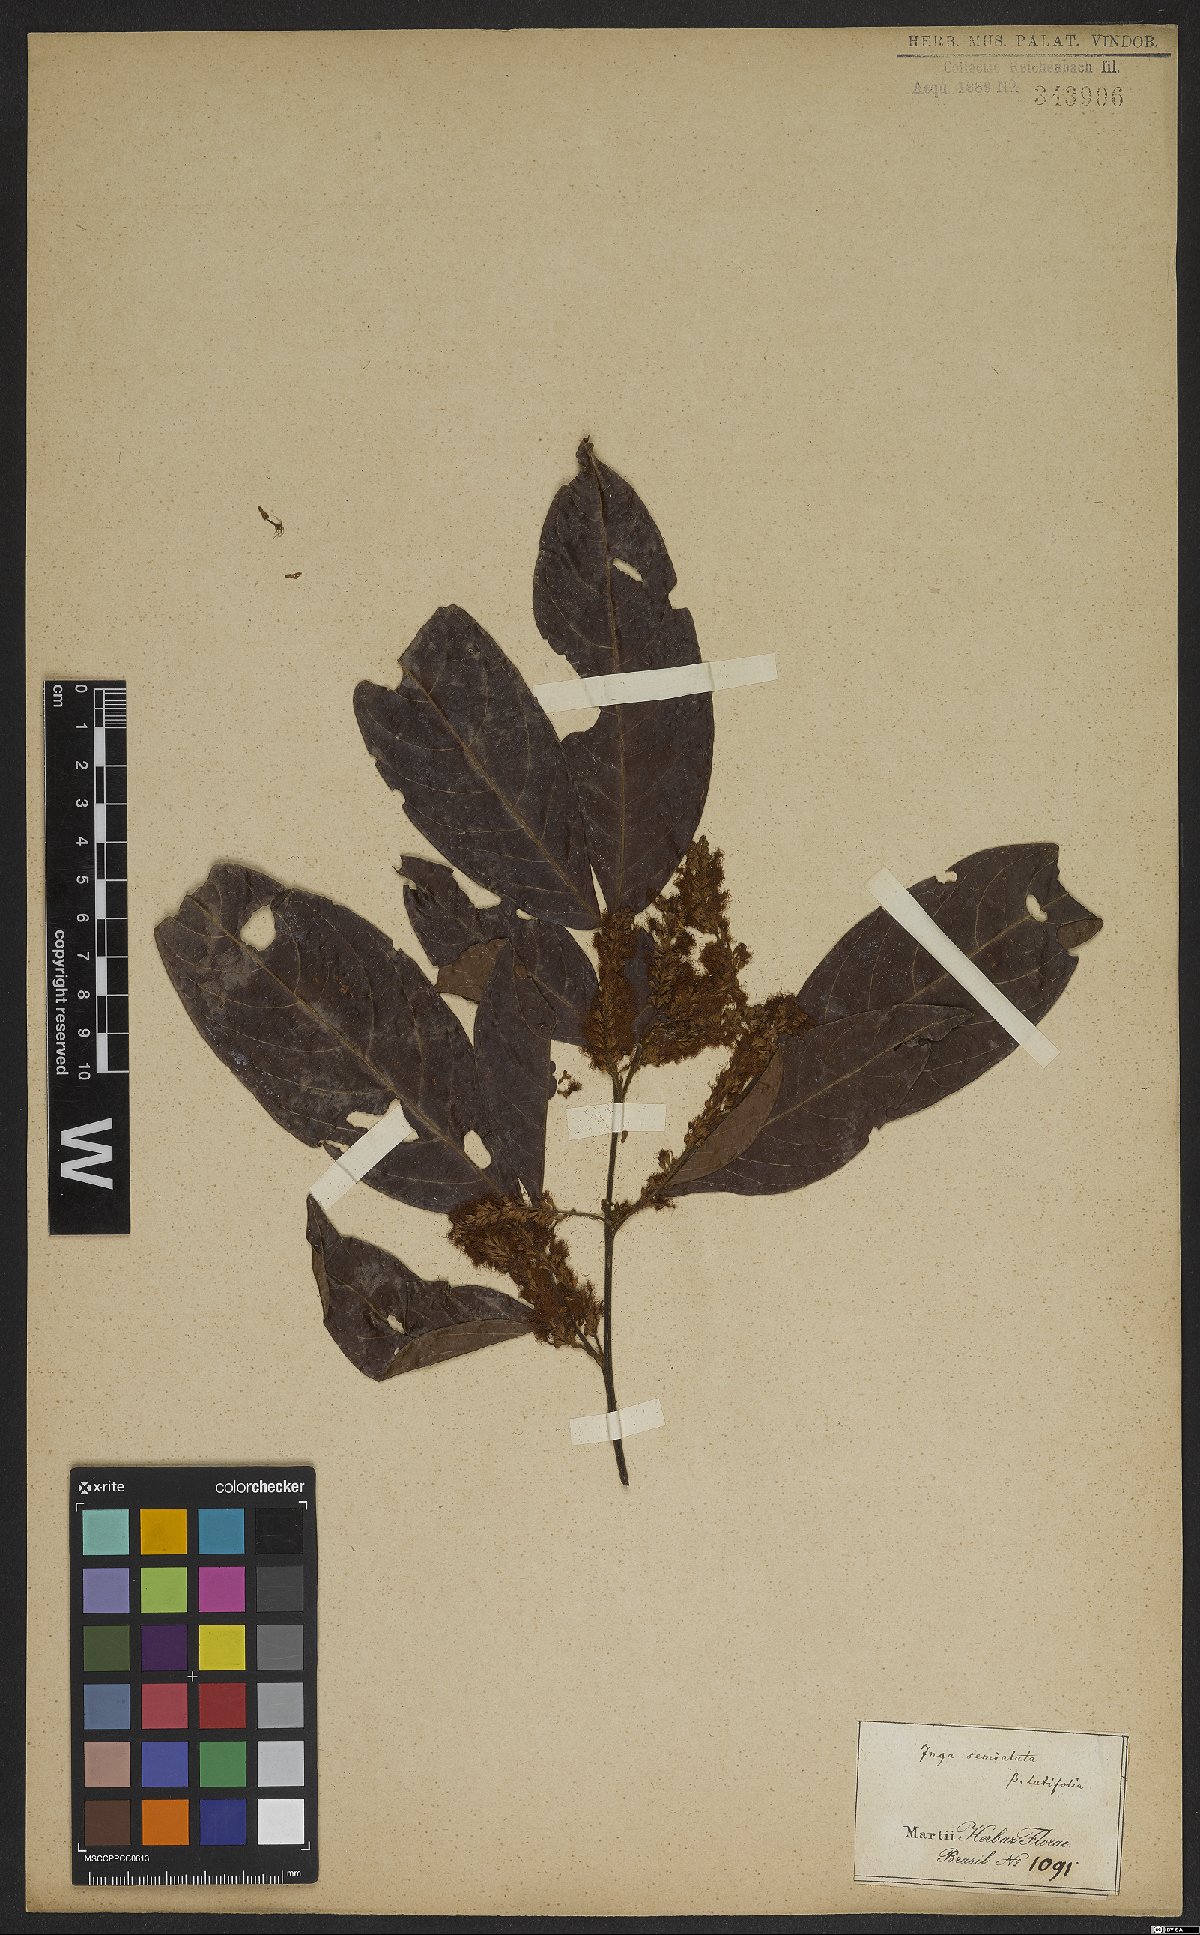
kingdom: Plantae
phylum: Tracheophyta
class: Magnoliopsida
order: Fabales
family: Fabaceae
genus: Inga
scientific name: Inga marginata
